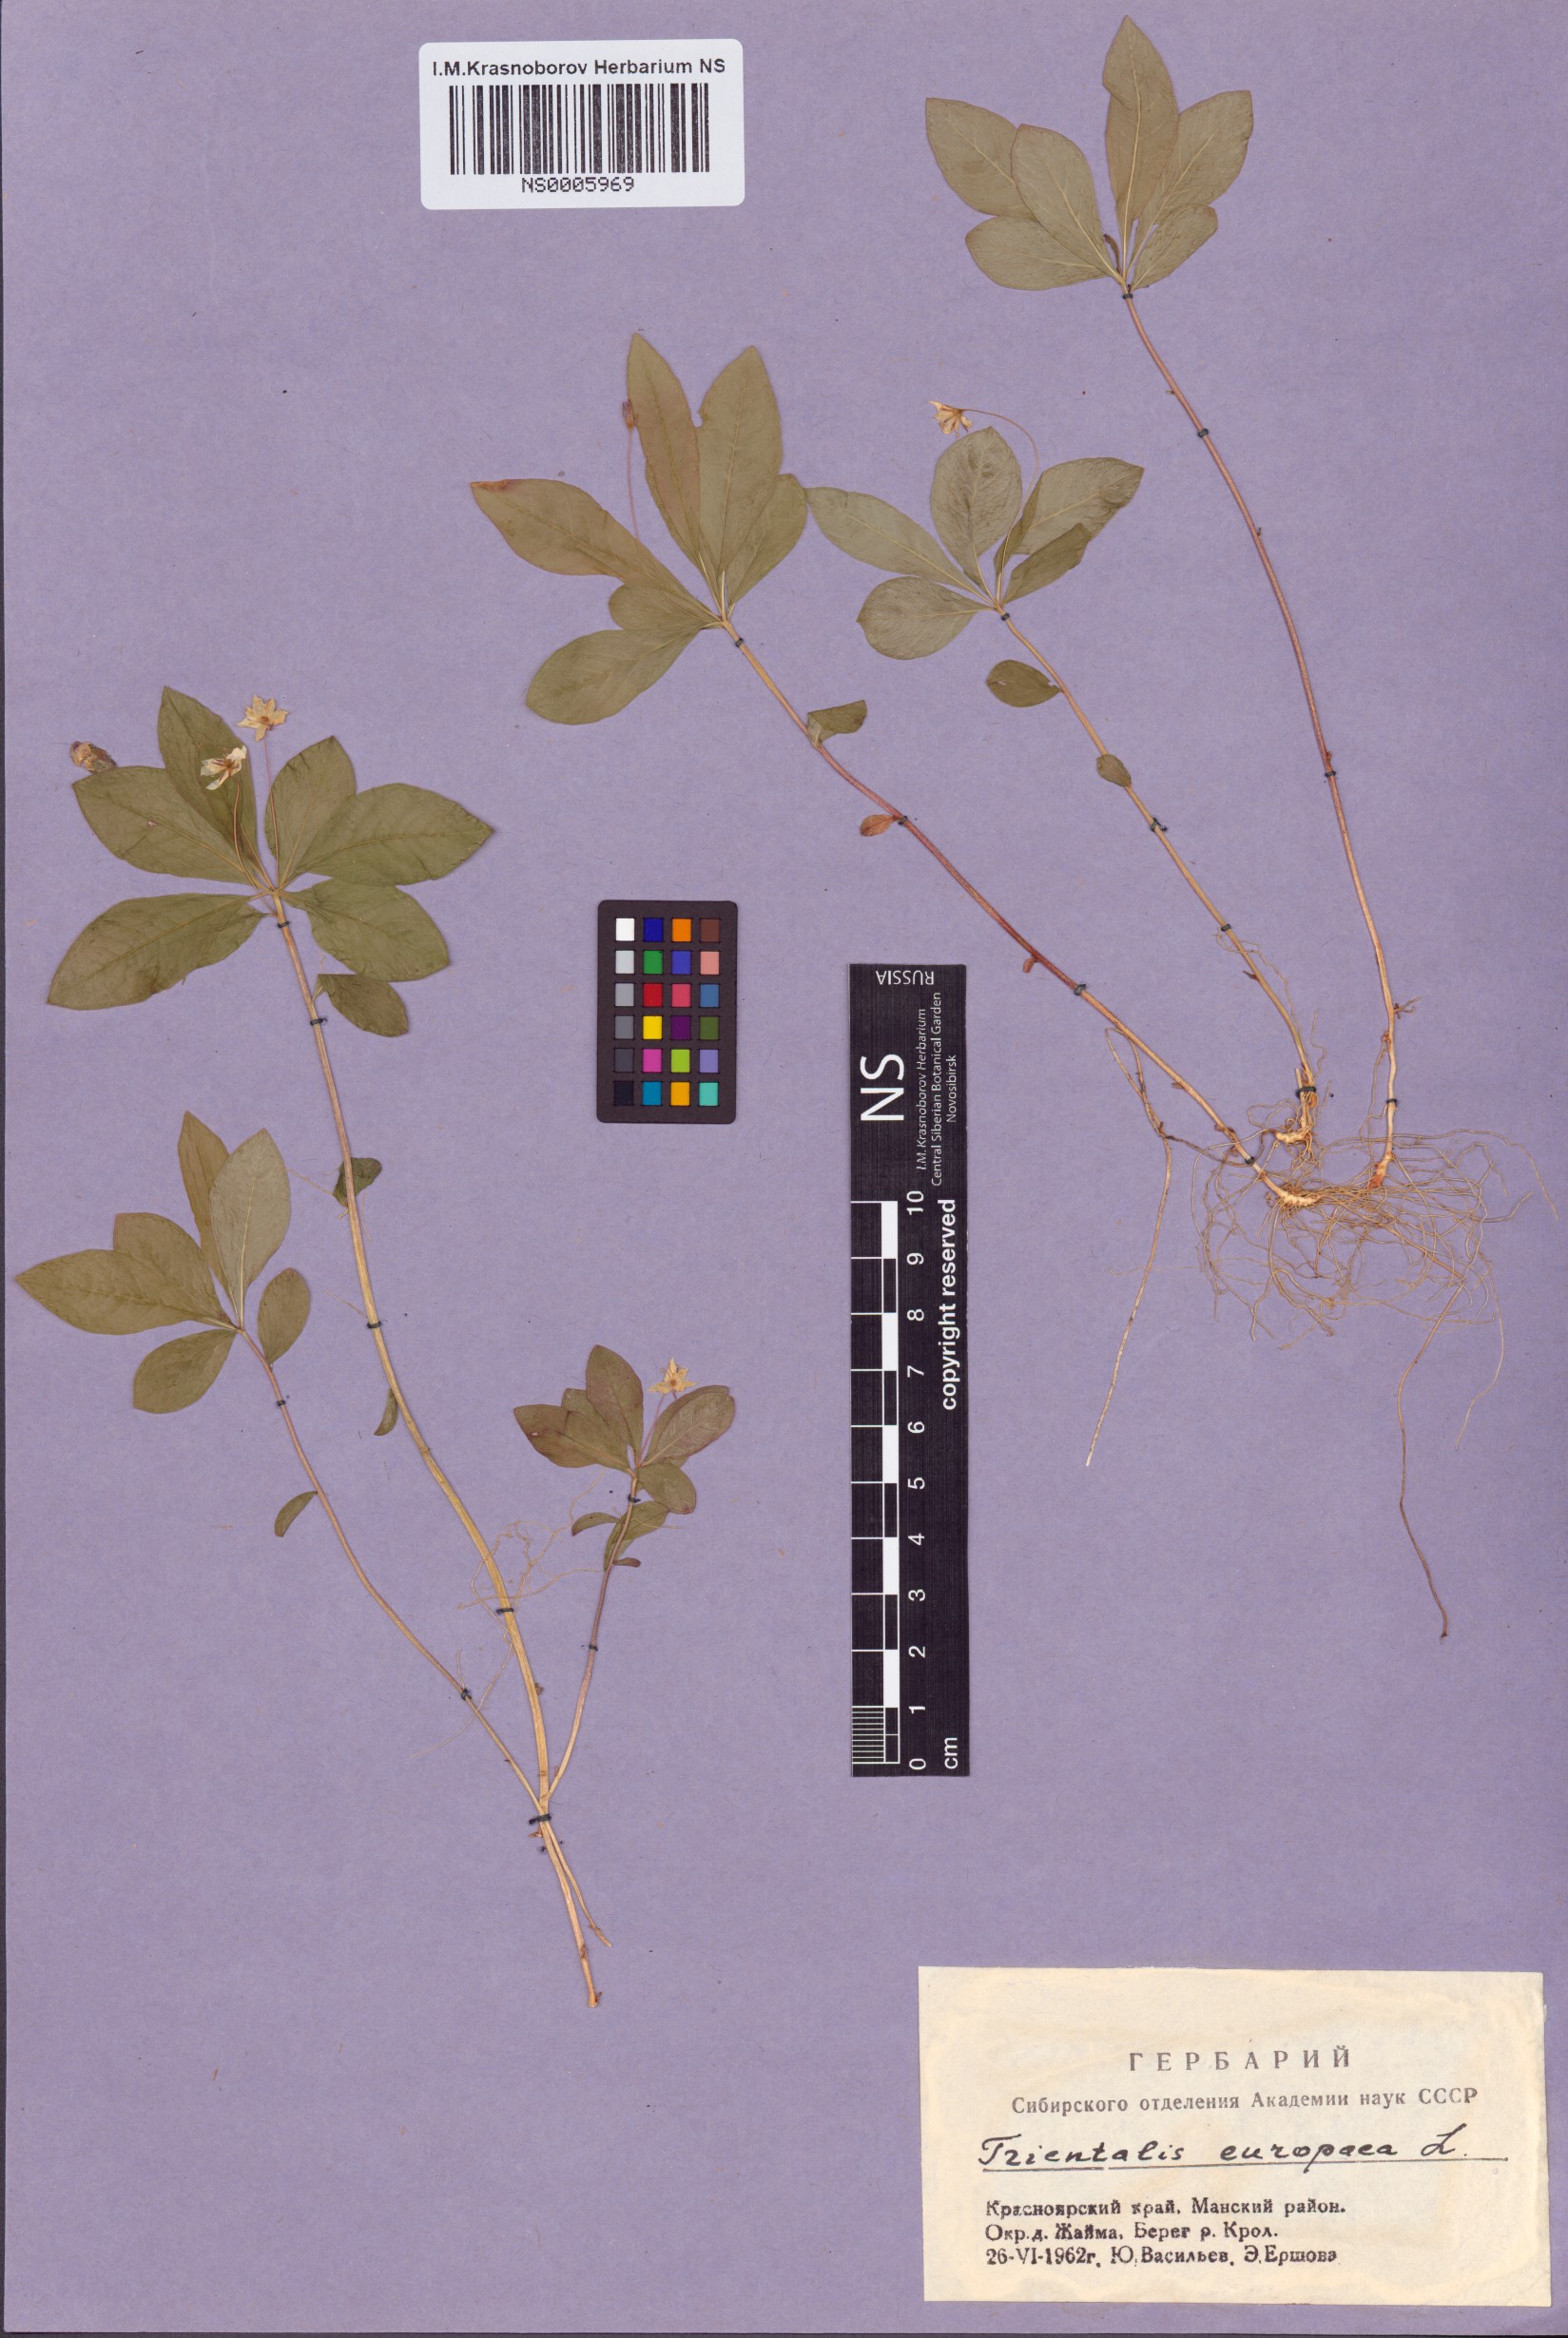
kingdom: Plantae
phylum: Tracheophyta
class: Magnoliopsida
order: Ericales
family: Primulaceae
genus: Lysimachia
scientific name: Lysimachia europaea
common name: Arctic starflower
